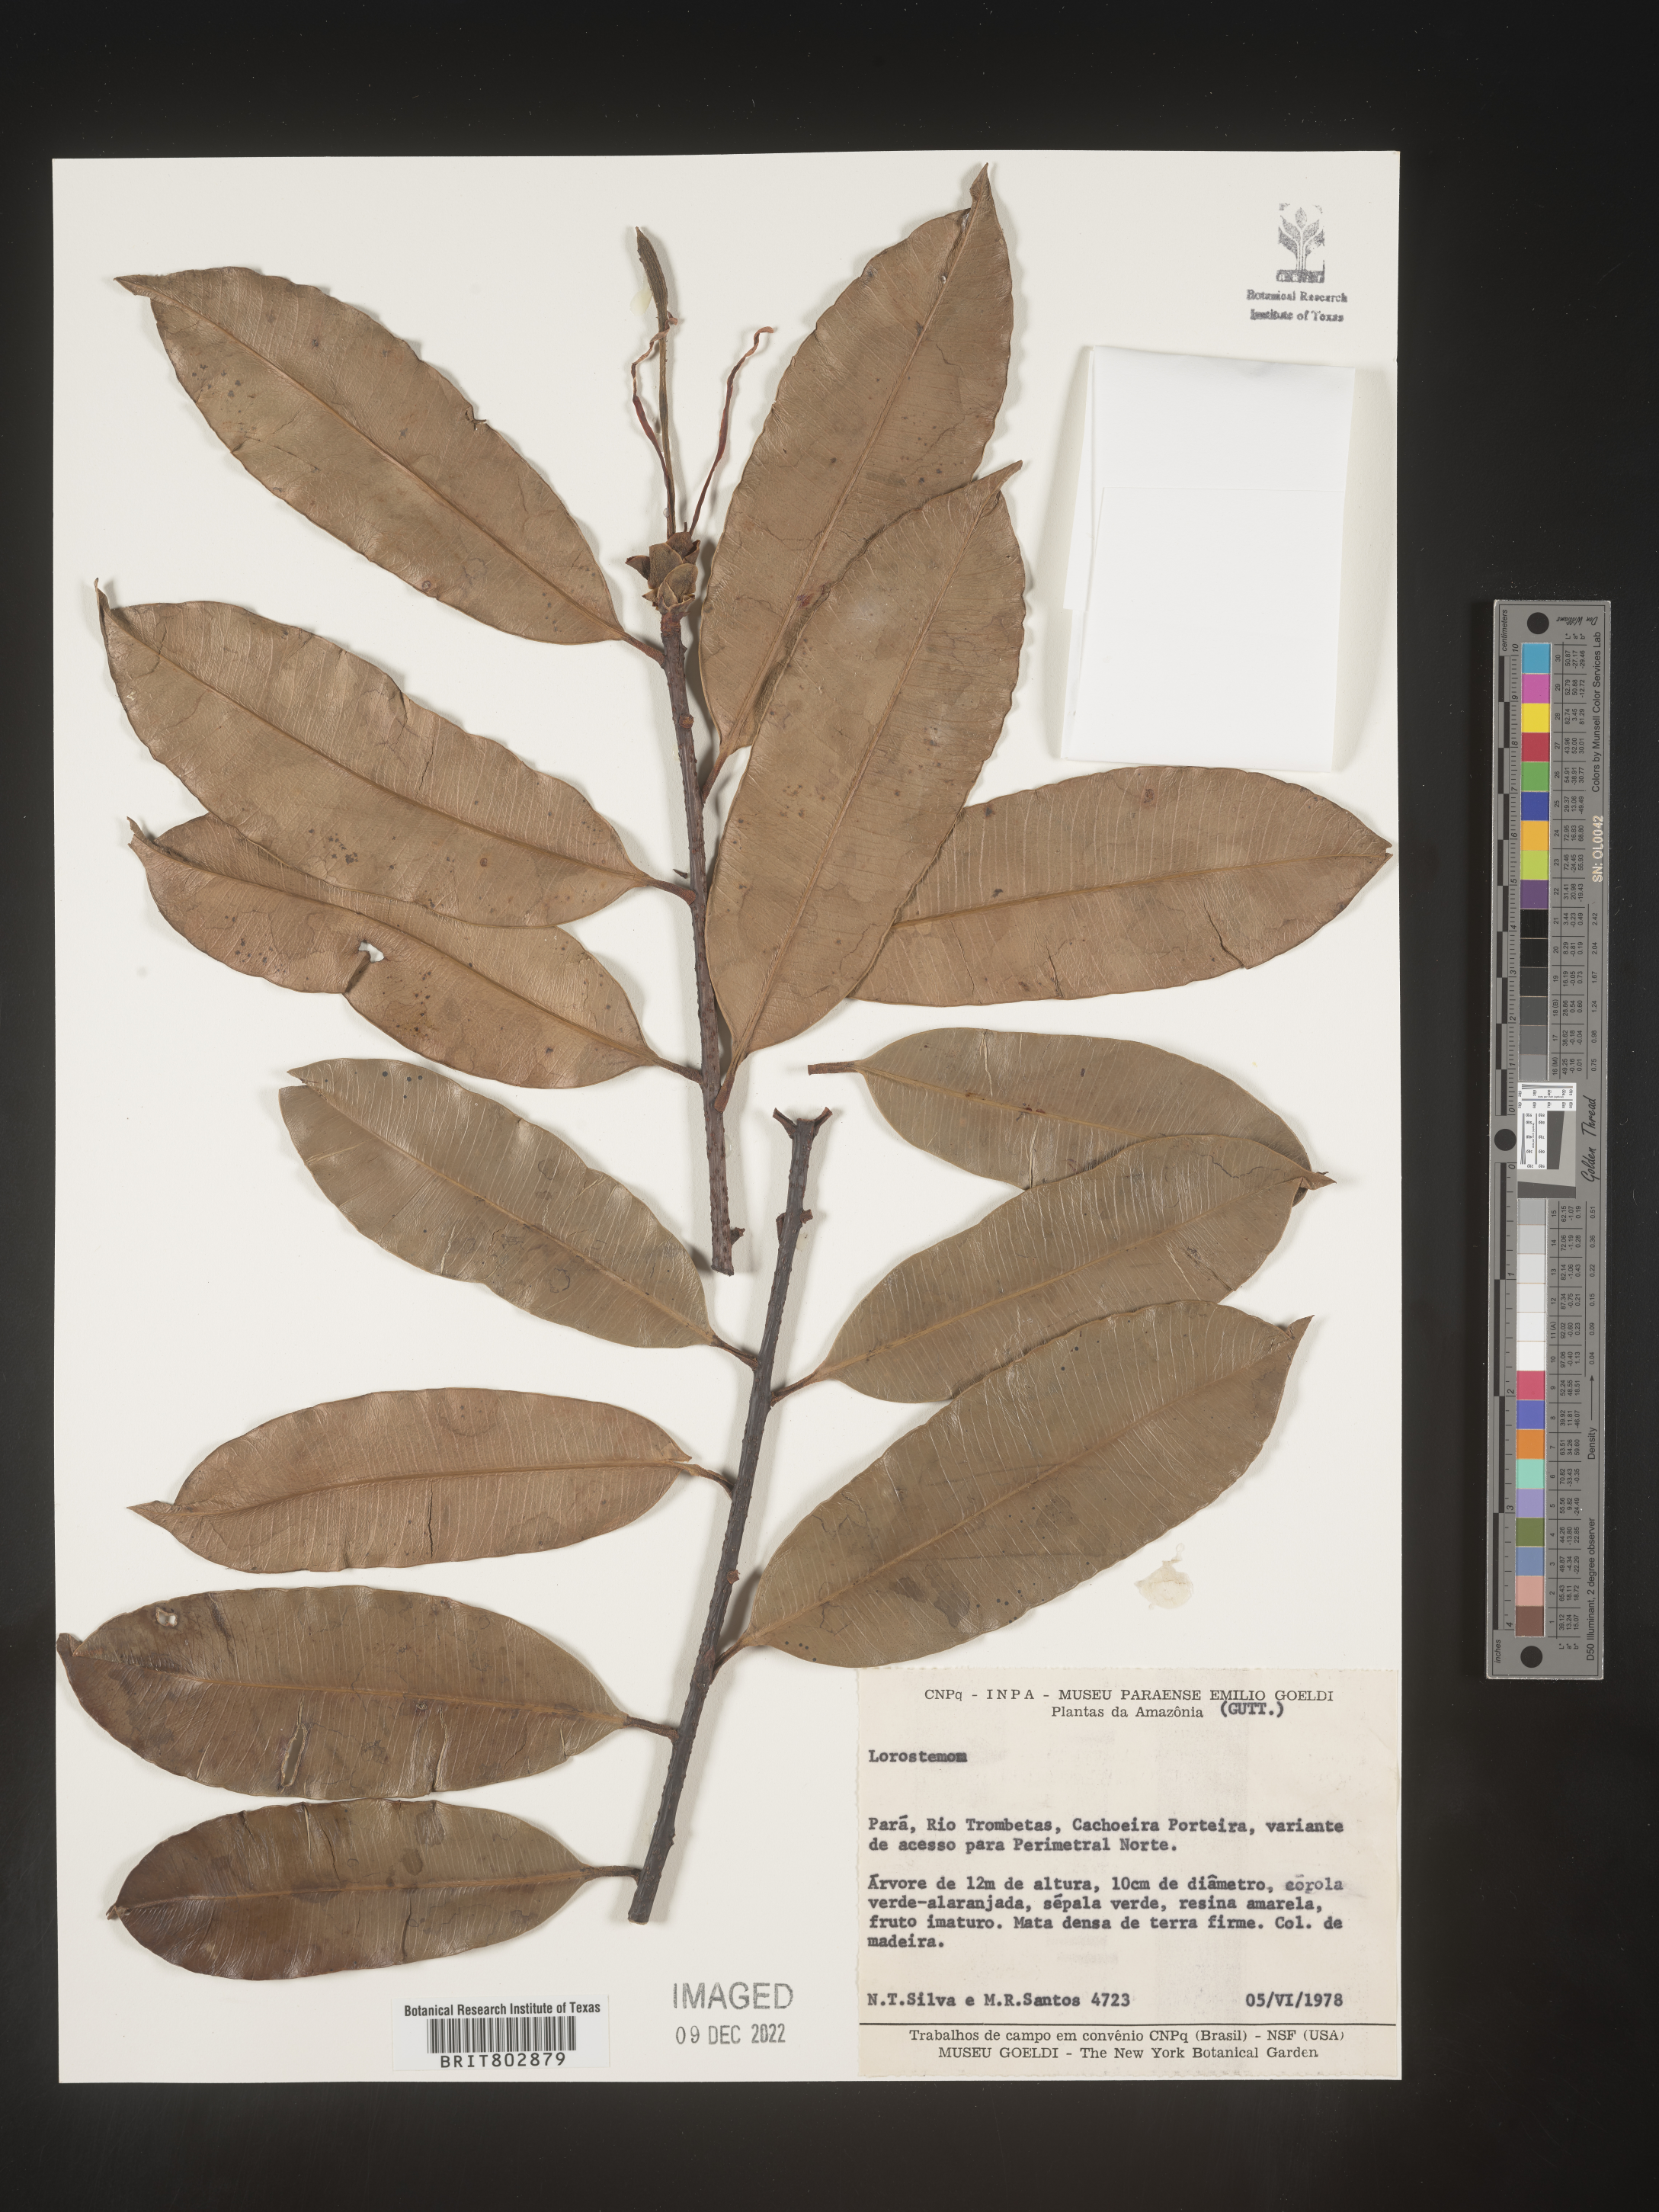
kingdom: Plantae
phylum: Tracheophyta
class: Magnoliopsida
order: Malpighiales
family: Clusiaceae
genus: Lorostemon
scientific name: Lorostemon
